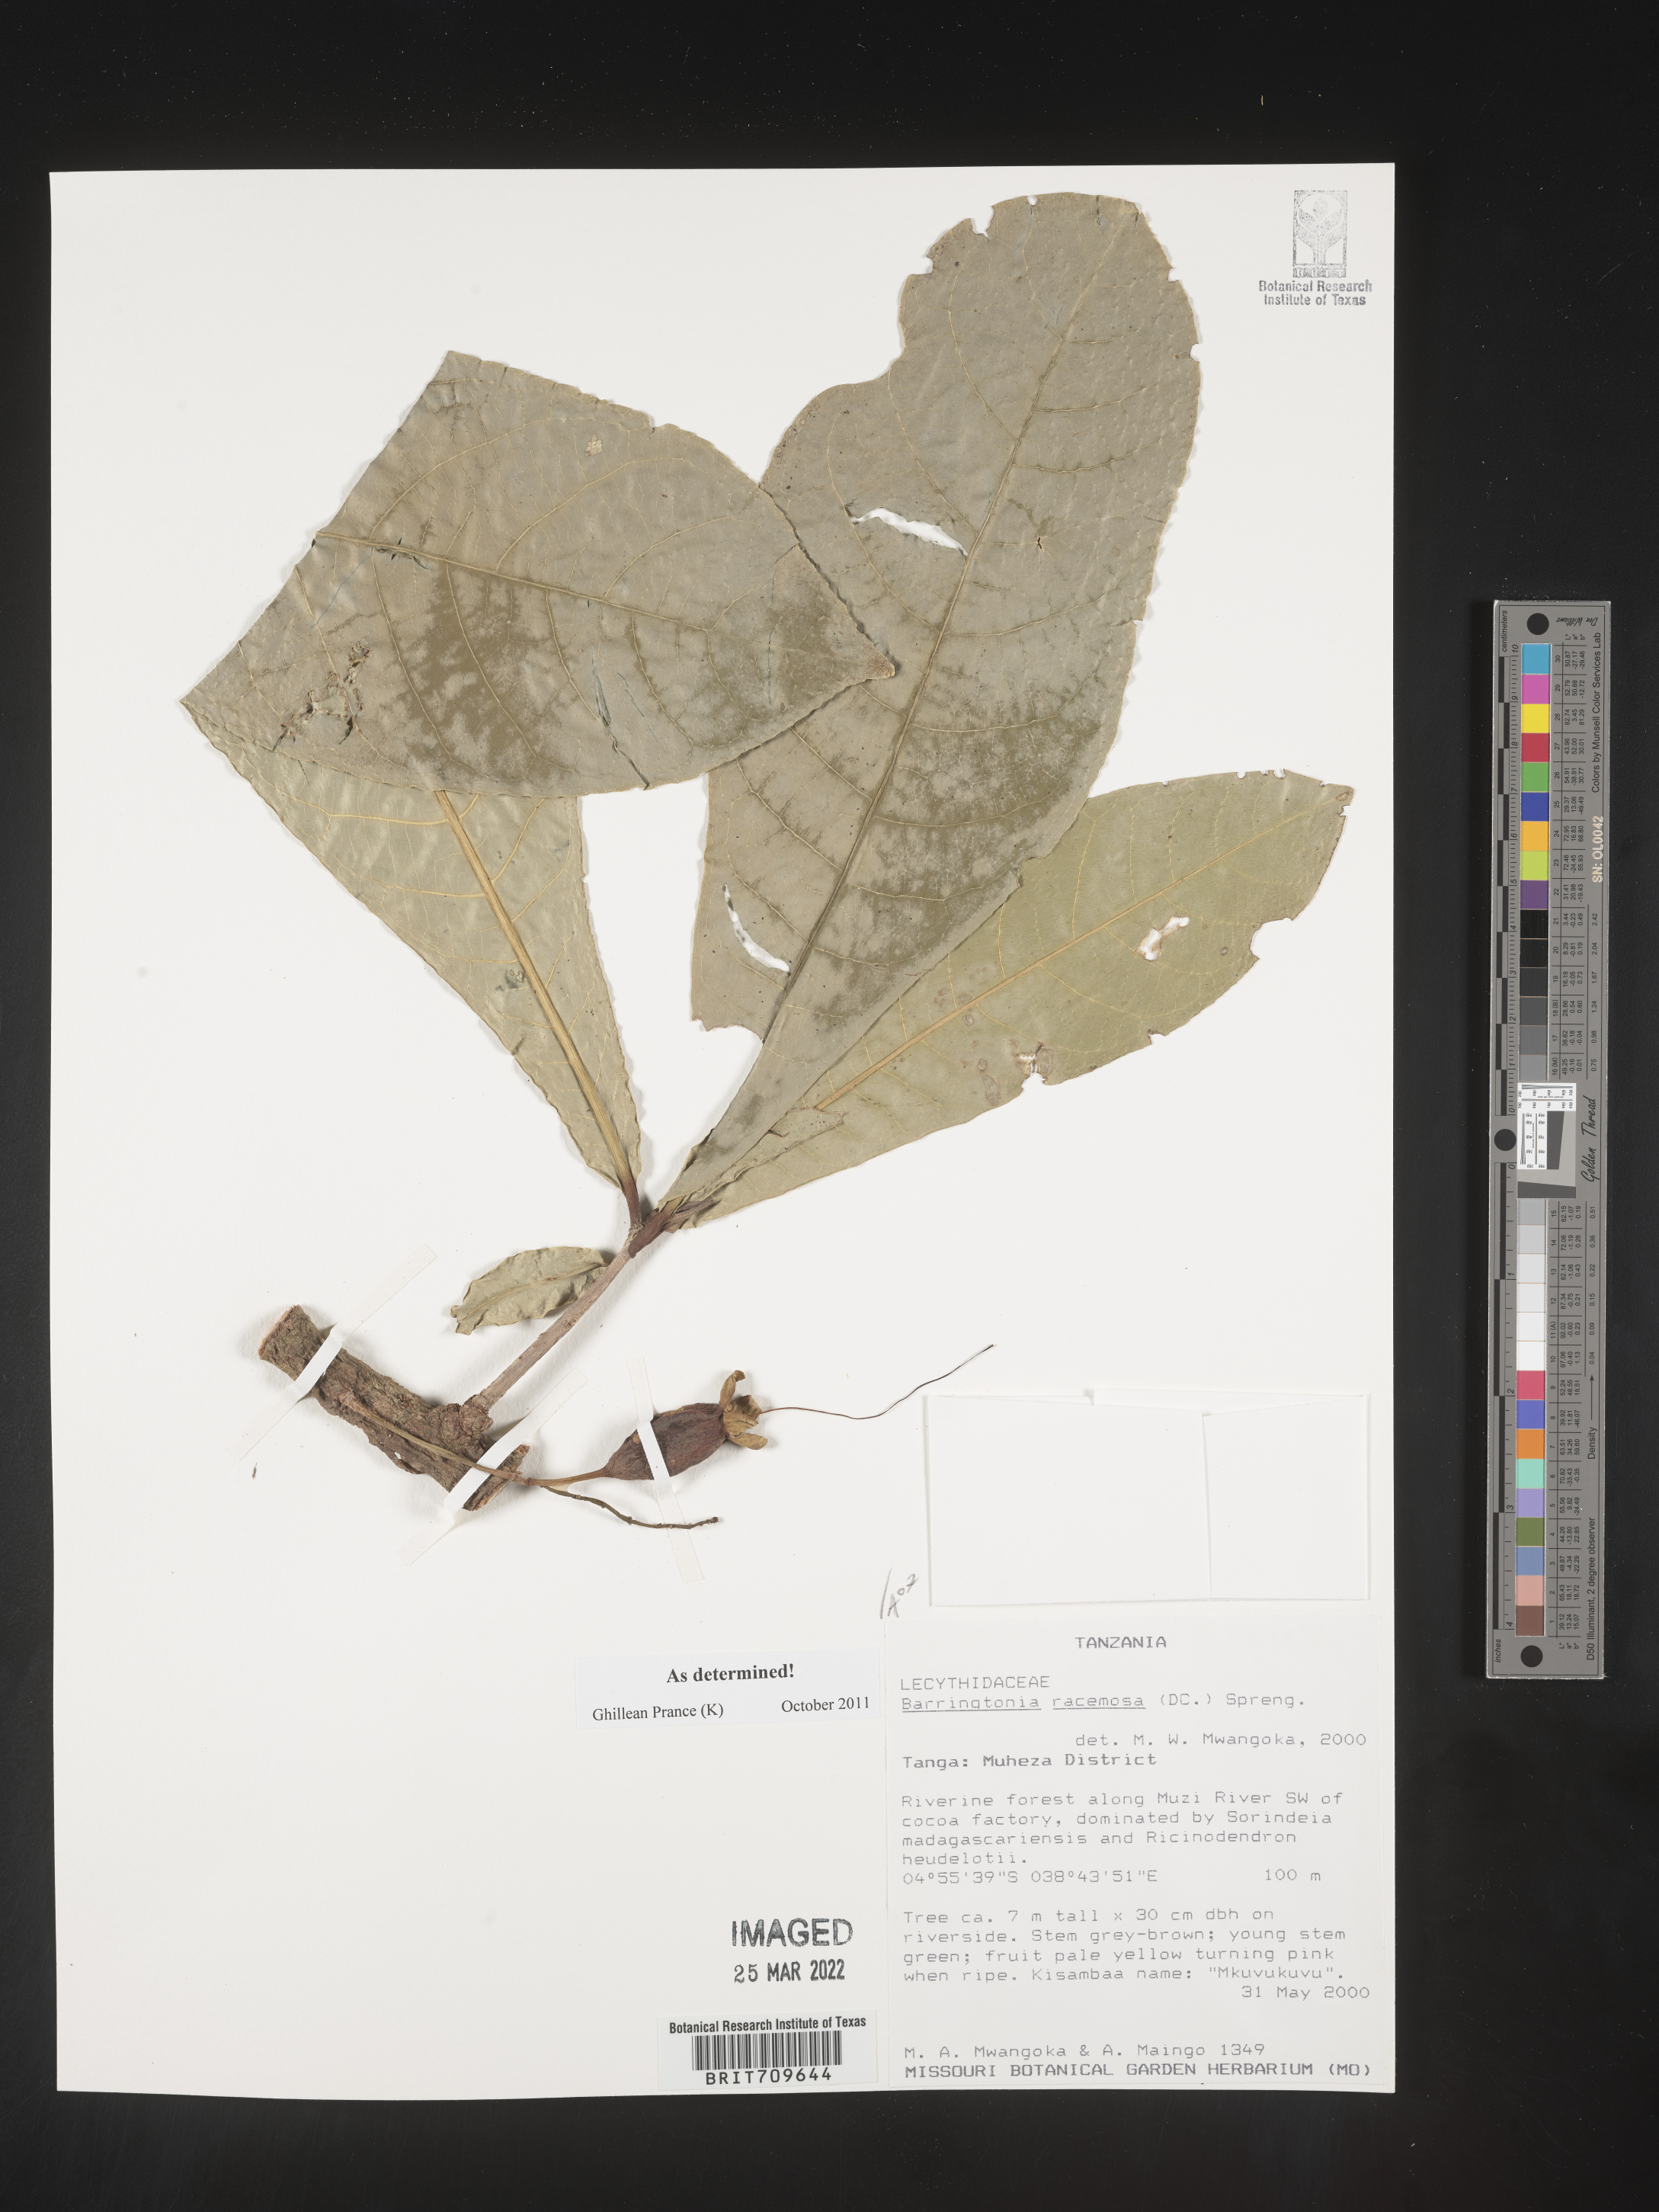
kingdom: Plantae
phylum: Tracheophyta
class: Magnoliopsida
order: Ericales
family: Lecythidaceae
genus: Barringtonia
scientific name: Barringtonia
